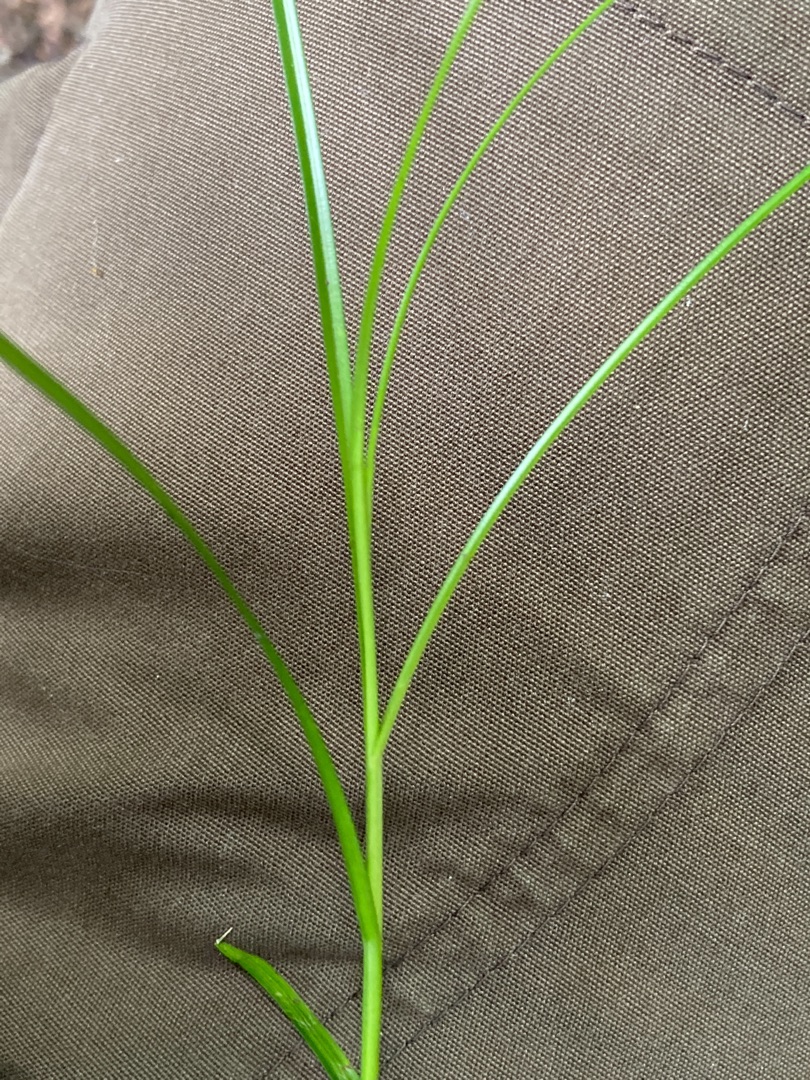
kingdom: Plantae
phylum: Tracheophyta
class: Liliopsida
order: Poales
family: Cyperaceae
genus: Carex
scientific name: Carex remota
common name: Akselblomstret star
